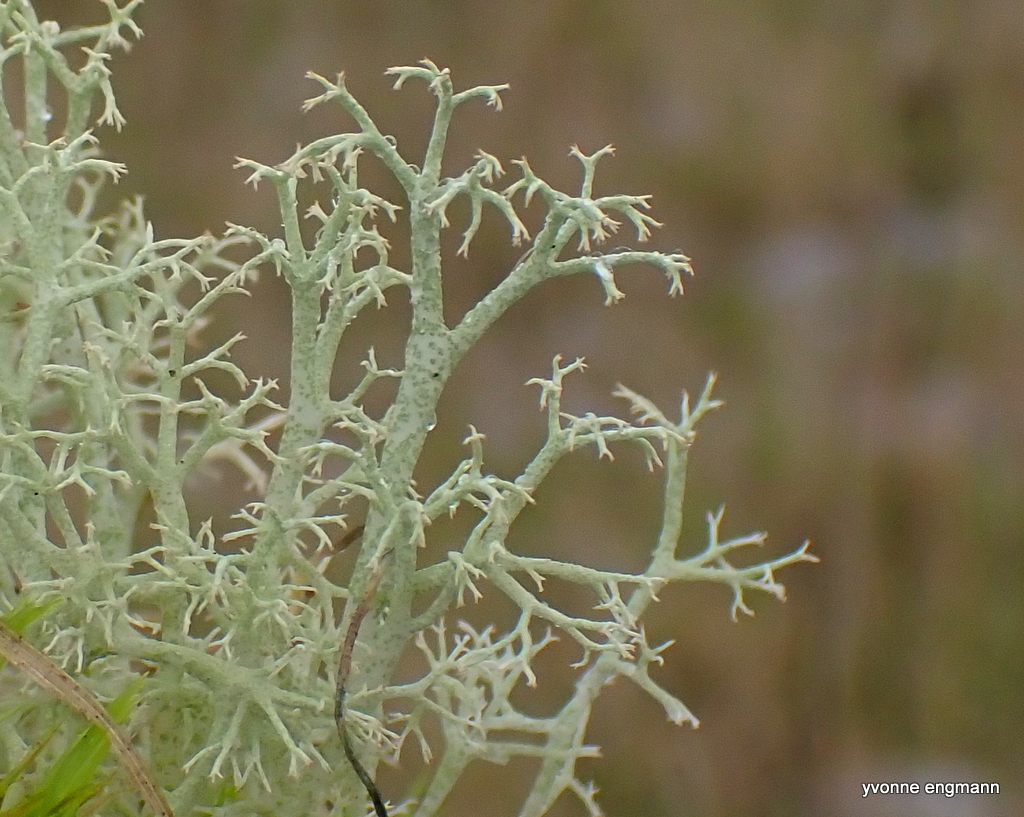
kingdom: Fungi
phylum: Ascomycota
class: Lecanoromycetes
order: Lecanorales
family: Cladoniaceae
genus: Cladonia
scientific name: Cladonia portentosa
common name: hede-rensdyrlav
